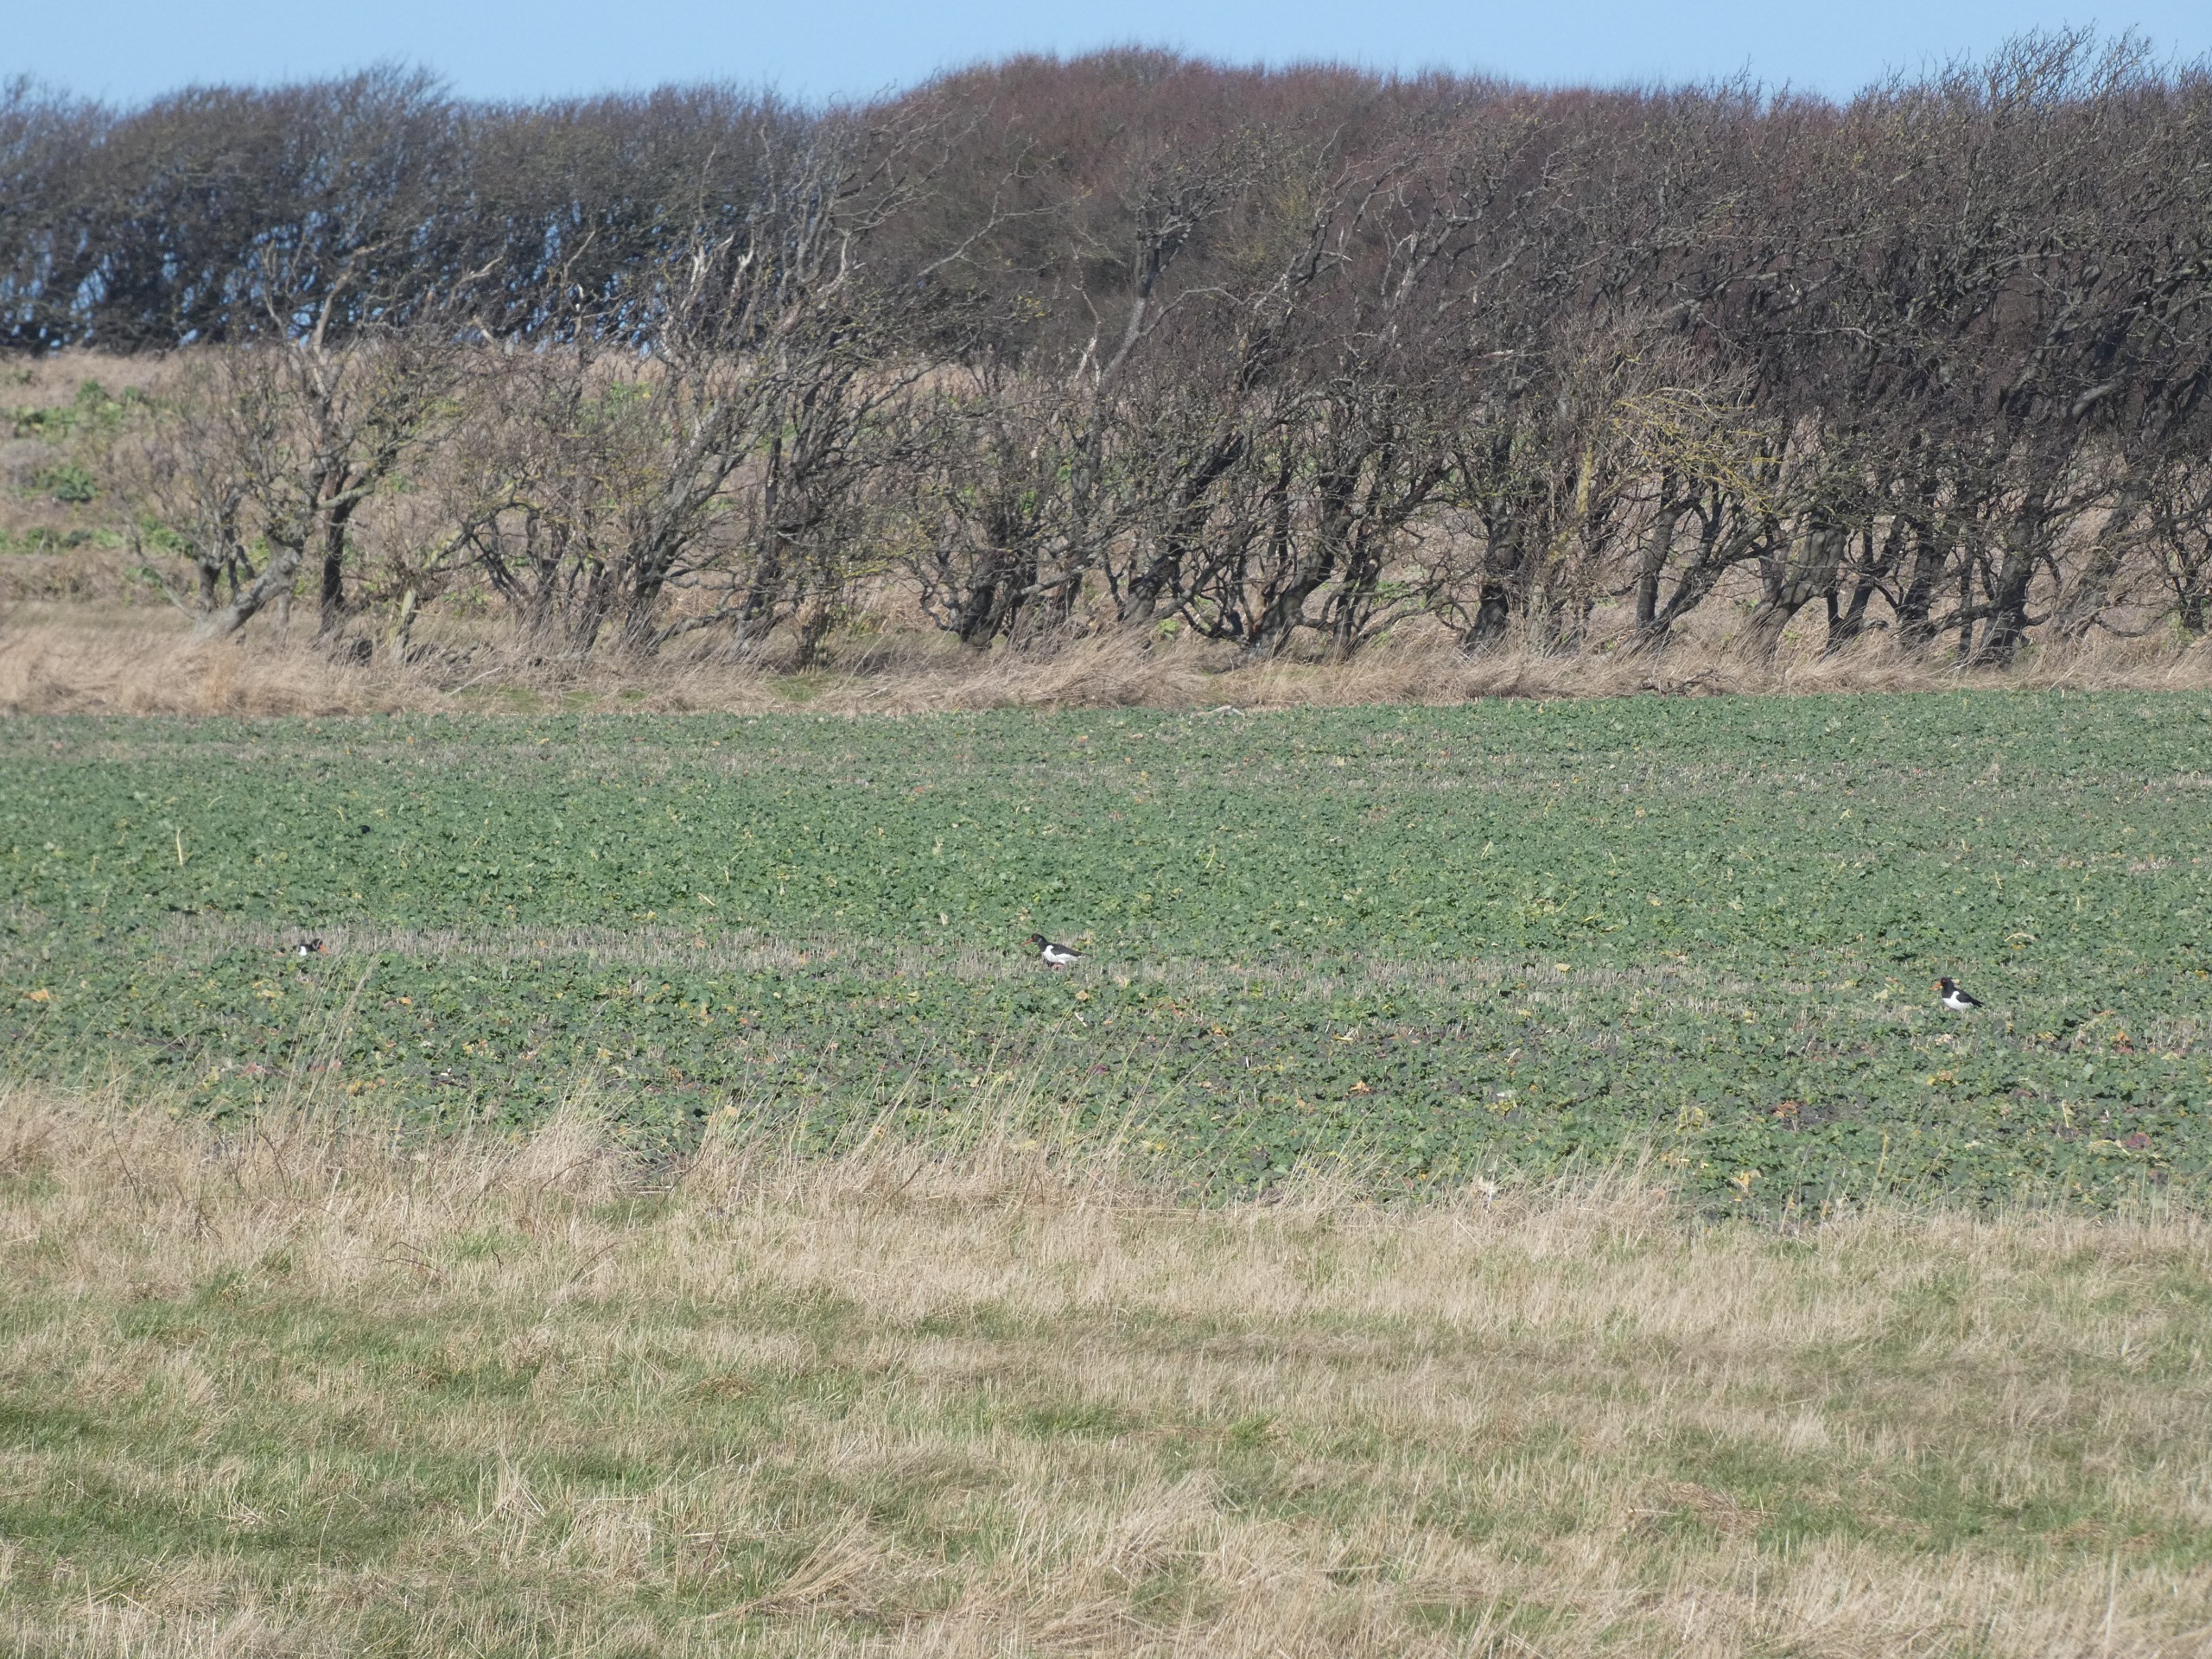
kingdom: Animalia
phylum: Chordata
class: Aves
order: Charadriiformes
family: Haematopodidae
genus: Haematopus
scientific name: Haematopus ostralegus
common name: Strandskade
